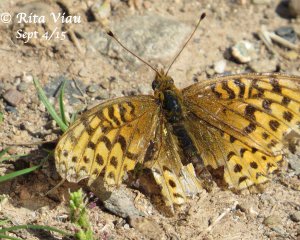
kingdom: Animalia
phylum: Arthropoda
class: Insecta
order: Lepidoptera
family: Nymphalidae
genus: Speyeria
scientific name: Speyeria atlantis
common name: Atlantis Fritillary
